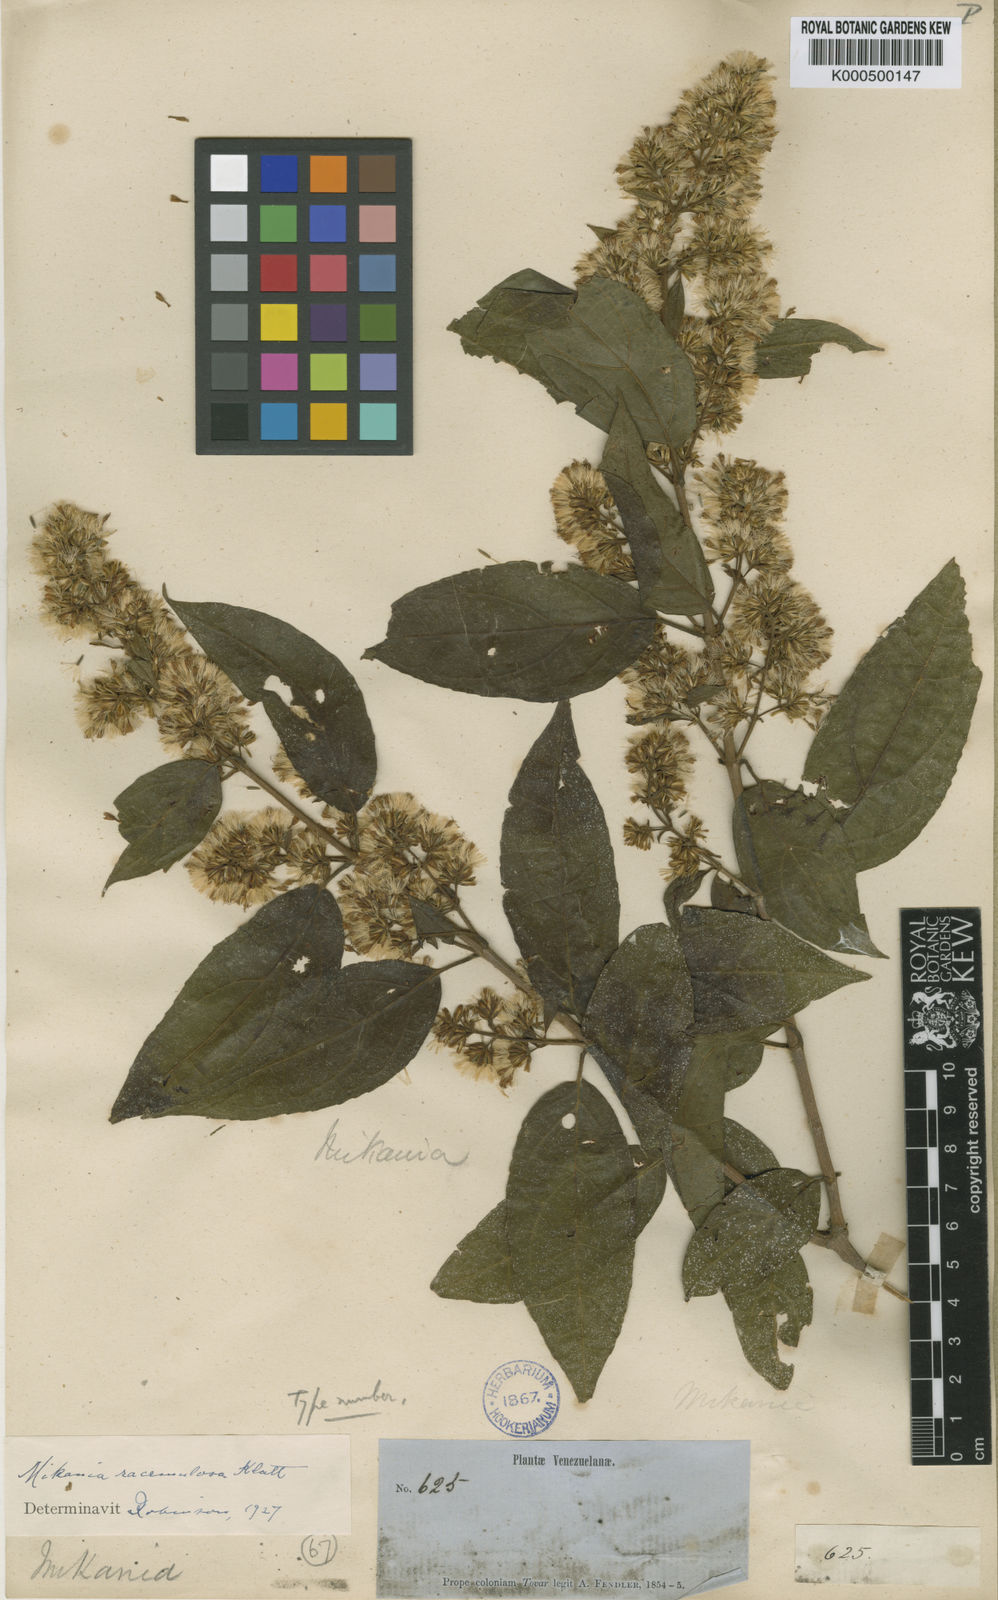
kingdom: Plantae
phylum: Tracheophyta
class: Magnoliopsida
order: Asterales
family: Asteraceae
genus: Mikania
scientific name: Mikania nemorosa
